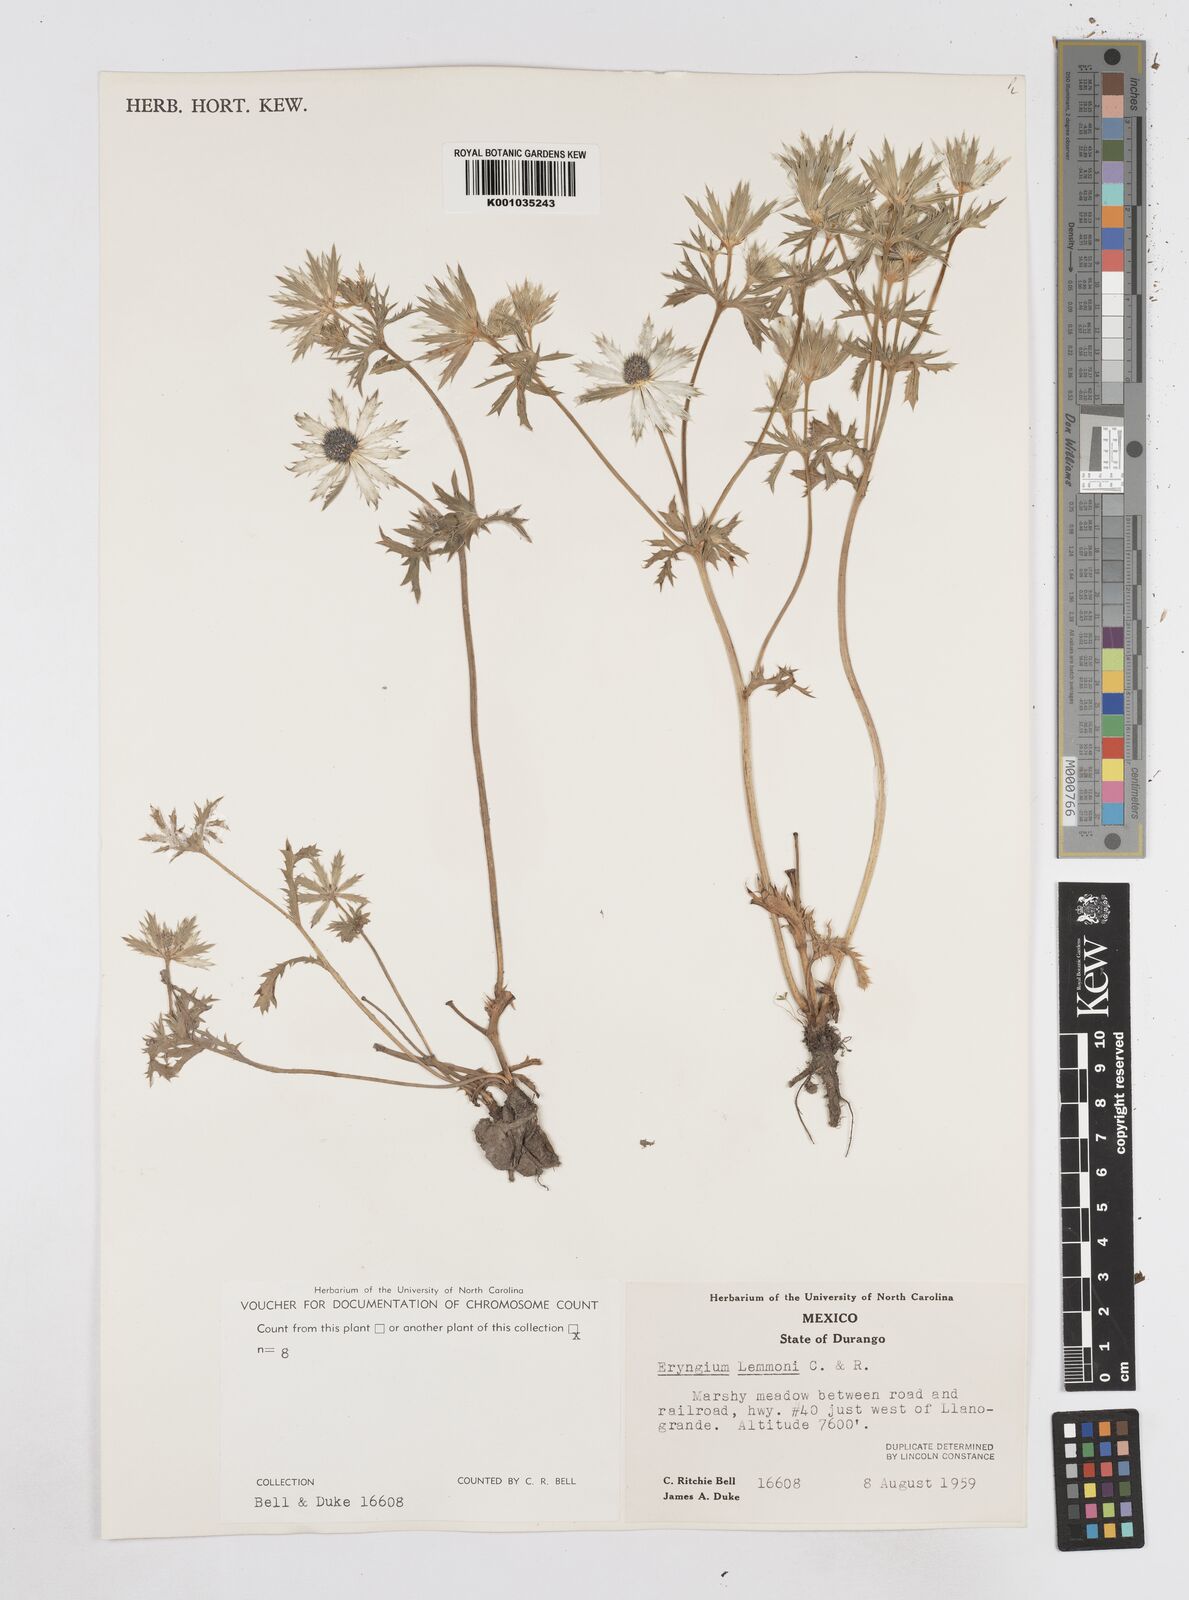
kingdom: Plantae
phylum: Tracheophyta
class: Magnoliopsida
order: Apiales
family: Apiaceae
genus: Eryngium
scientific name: Eryngium lemmonii
